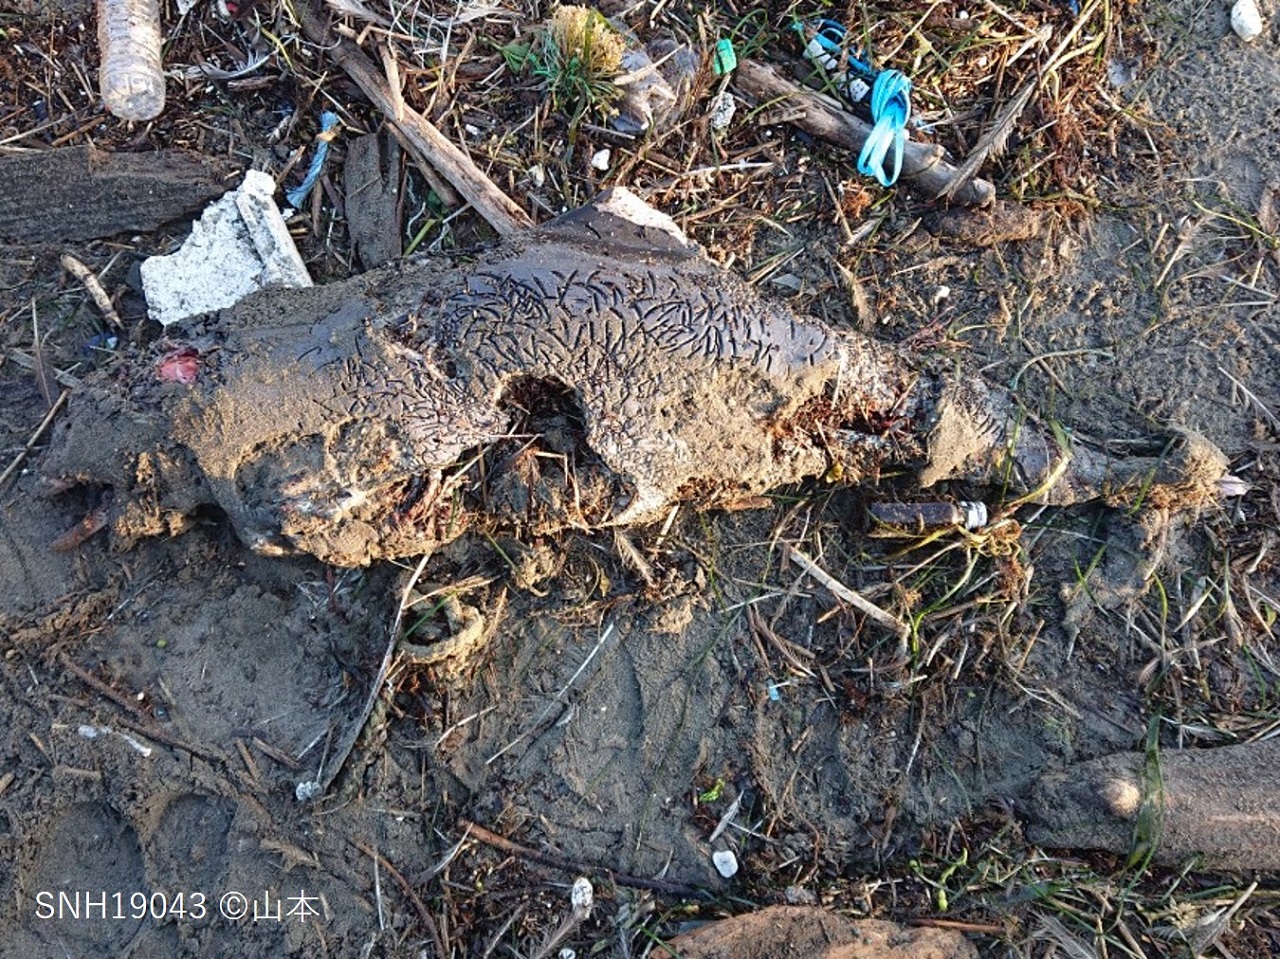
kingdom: Animalia
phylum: Chordata
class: Mammalia
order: Cetacea
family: Phocoenidae
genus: Phocoena
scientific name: Phocoena phocoena
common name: Harbour porpoise
